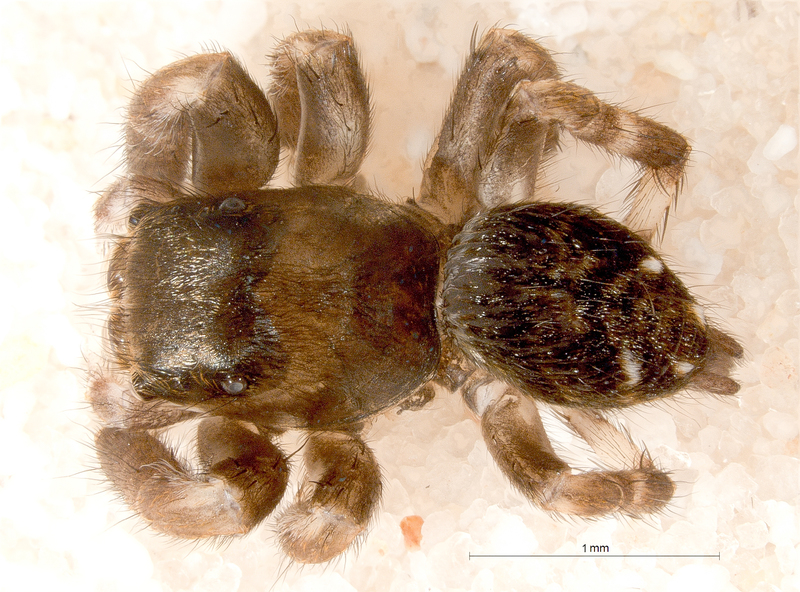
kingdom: Animalia
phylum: Arthropoda
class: Arachnida
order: Araneae
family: Salticidae
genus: Evarcha
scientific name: Evarcha arcuata
